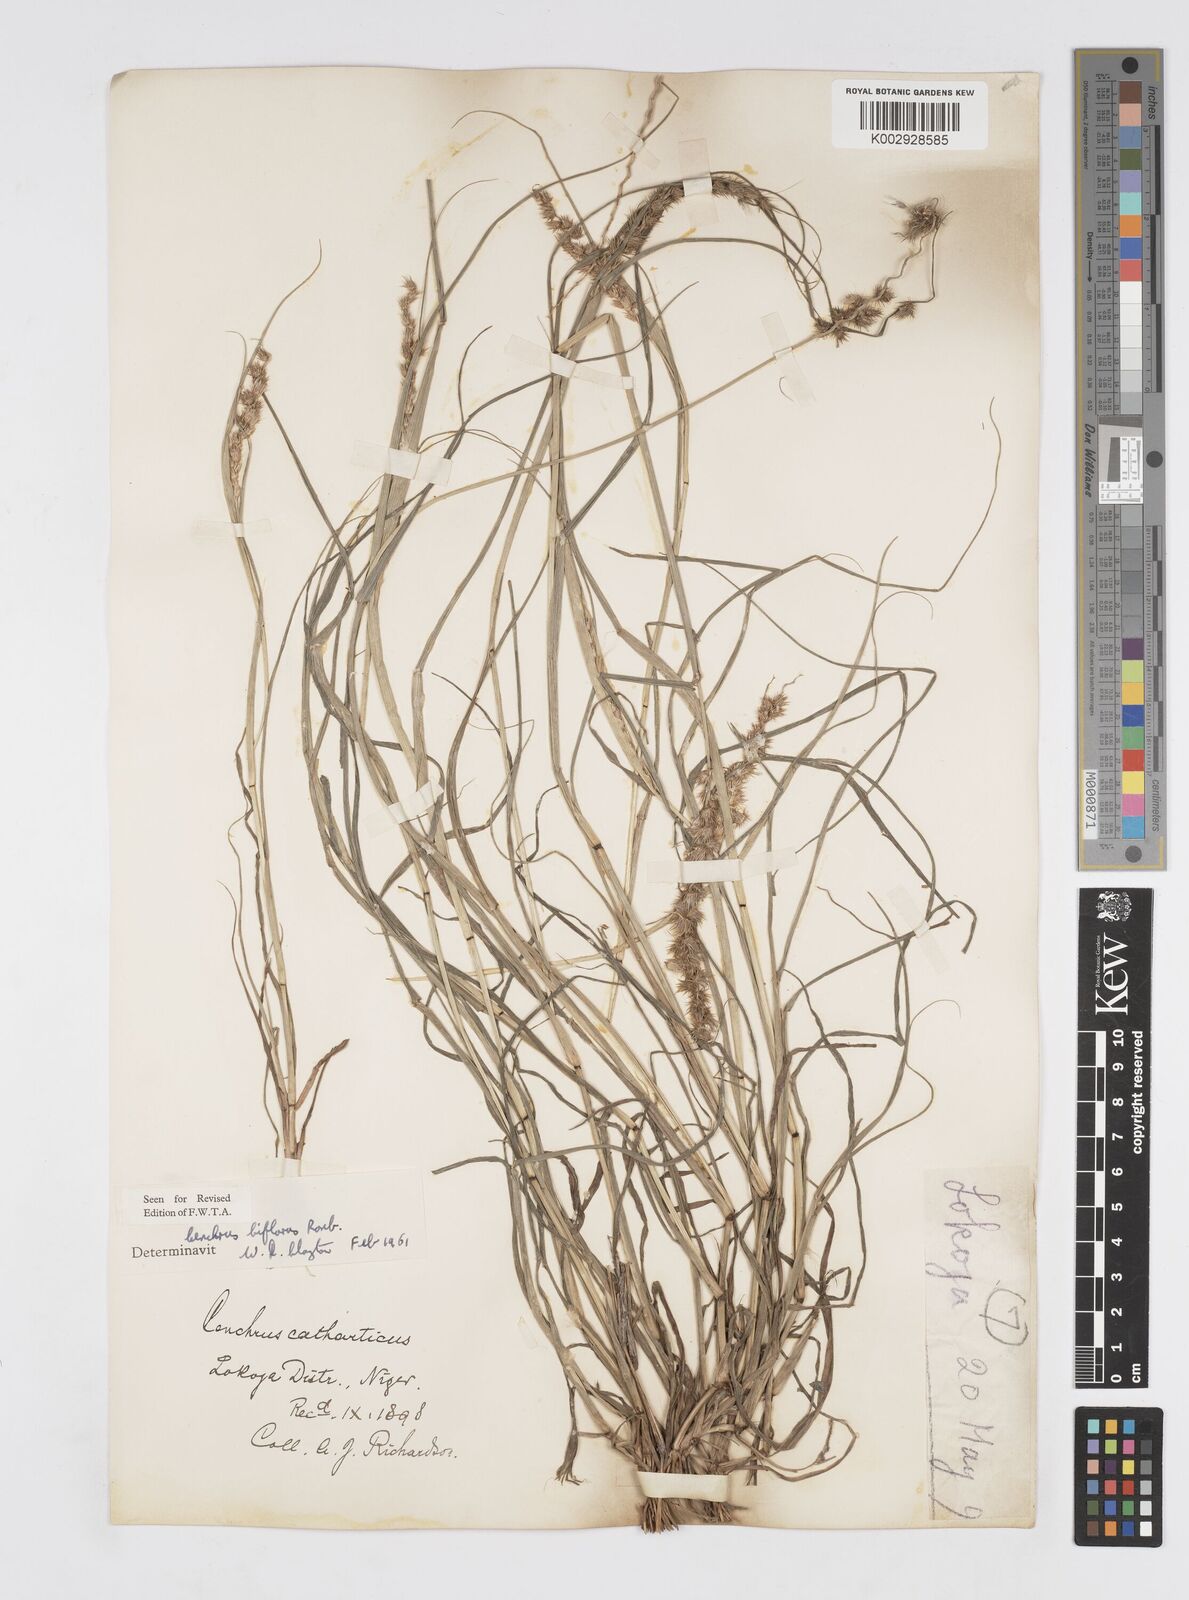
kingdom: Plantae
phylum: Tracheophyta
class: Liliopsida
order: Poales
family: Poaceae
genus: Cenchrus
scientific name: Cenchrus biflorus
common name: Indian sandbur
